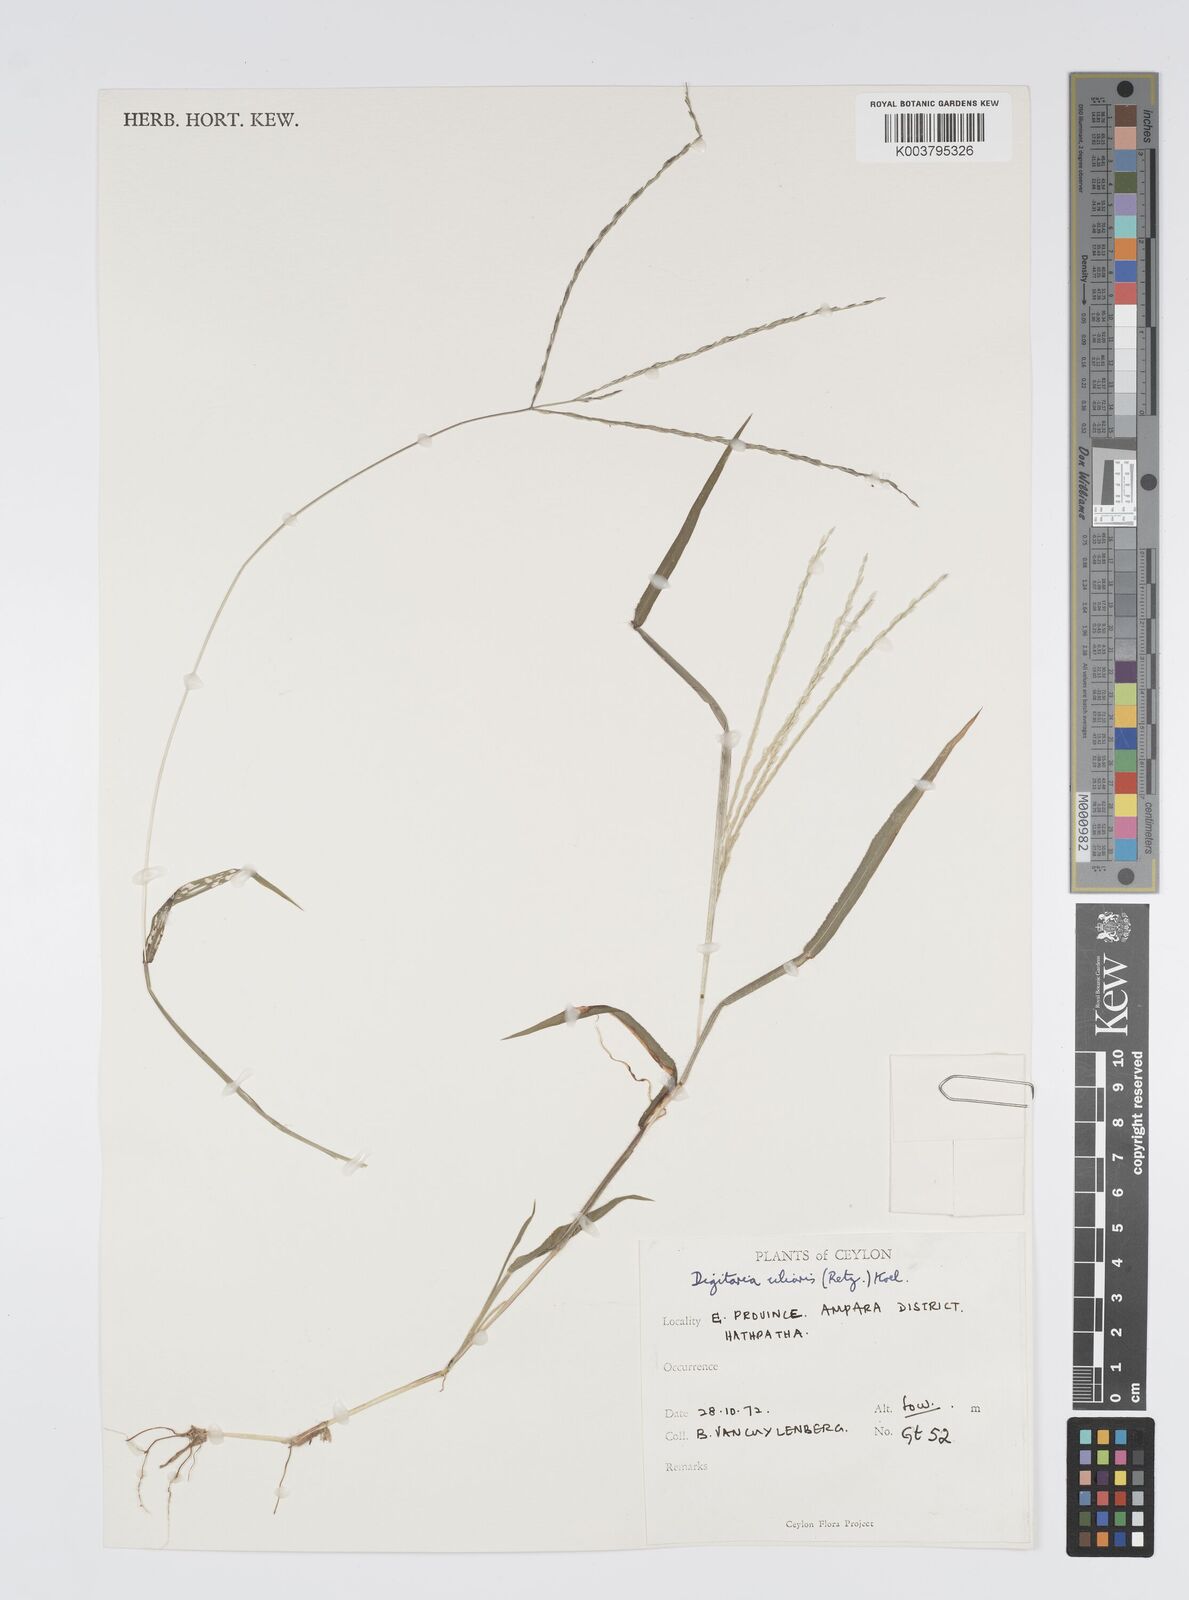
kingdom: Plantae
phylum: Tracheophyta
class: Liliopsida
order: Poales
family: Poaceae
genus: Digitaria
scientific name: Digitaria ciliaris
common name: Tropical finger-grass
